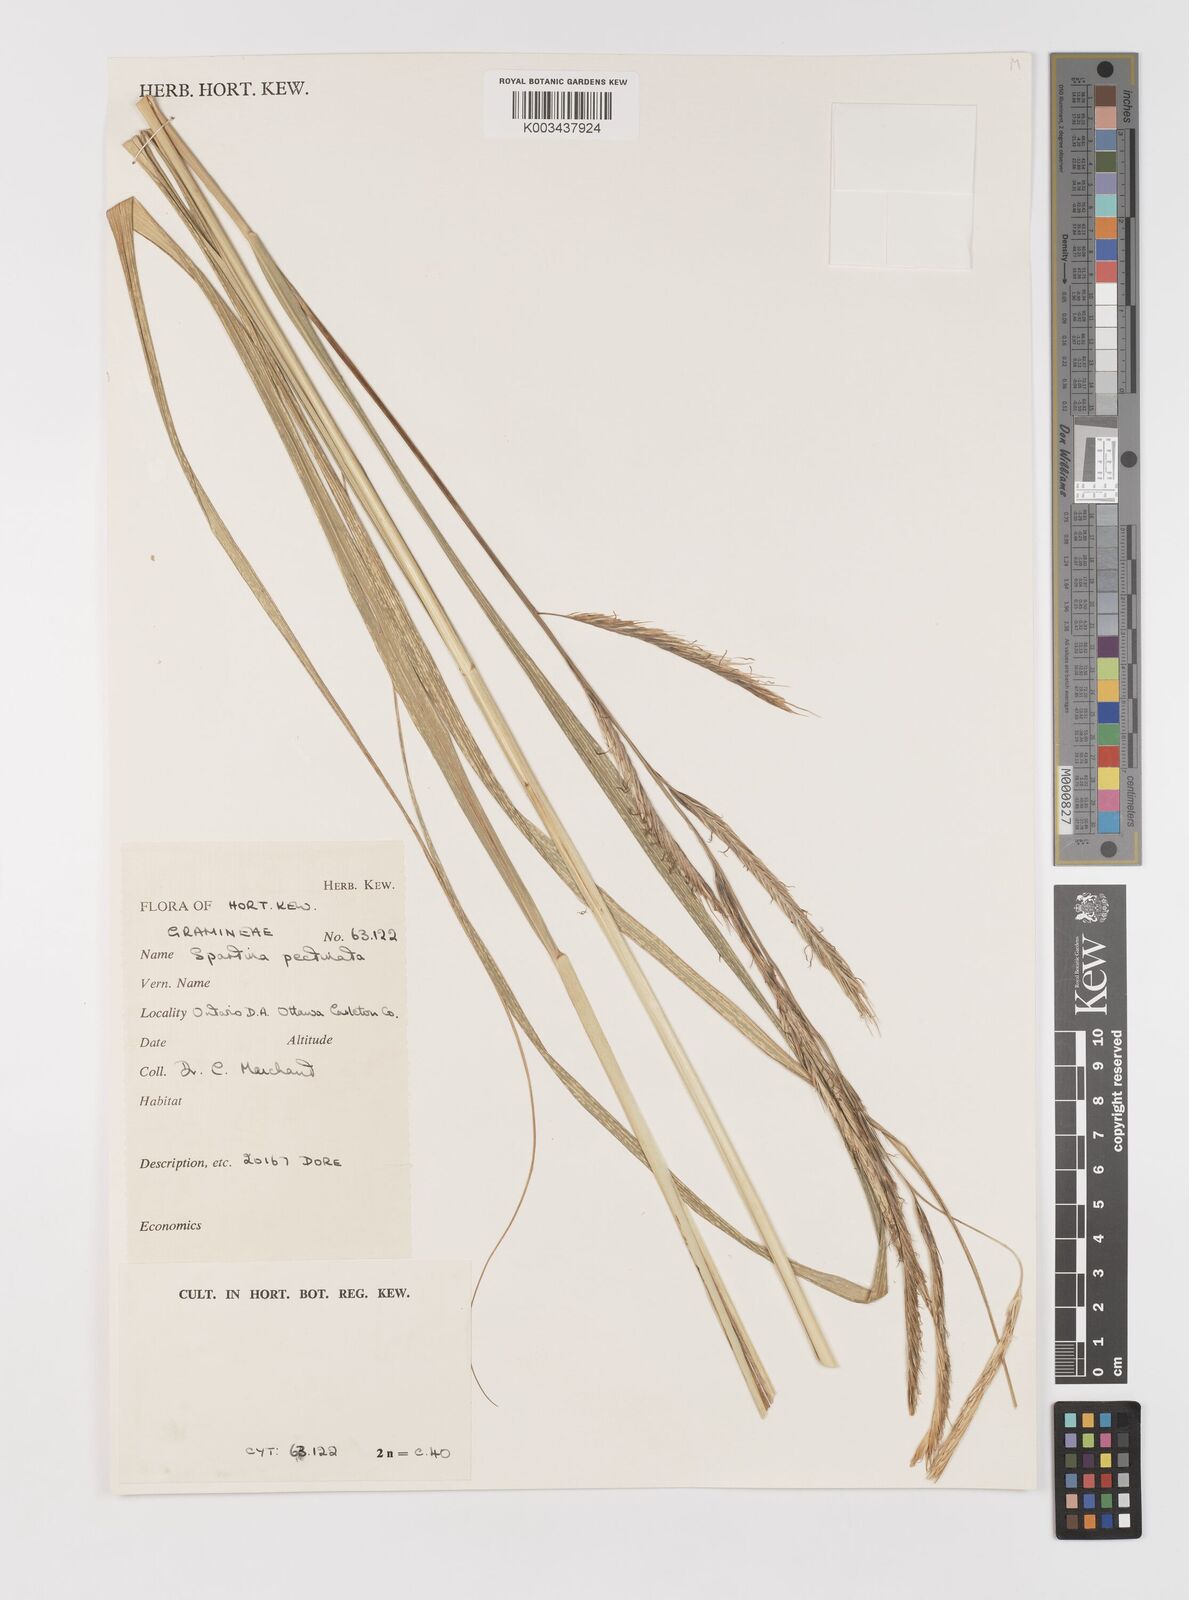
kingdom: Plantae
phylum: Tracheophyta
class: Liliopsida
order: Poales
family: Poaceae
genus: Sporobolus
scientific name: Sporobolus michauxianus
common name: Freshwater cordgrass
